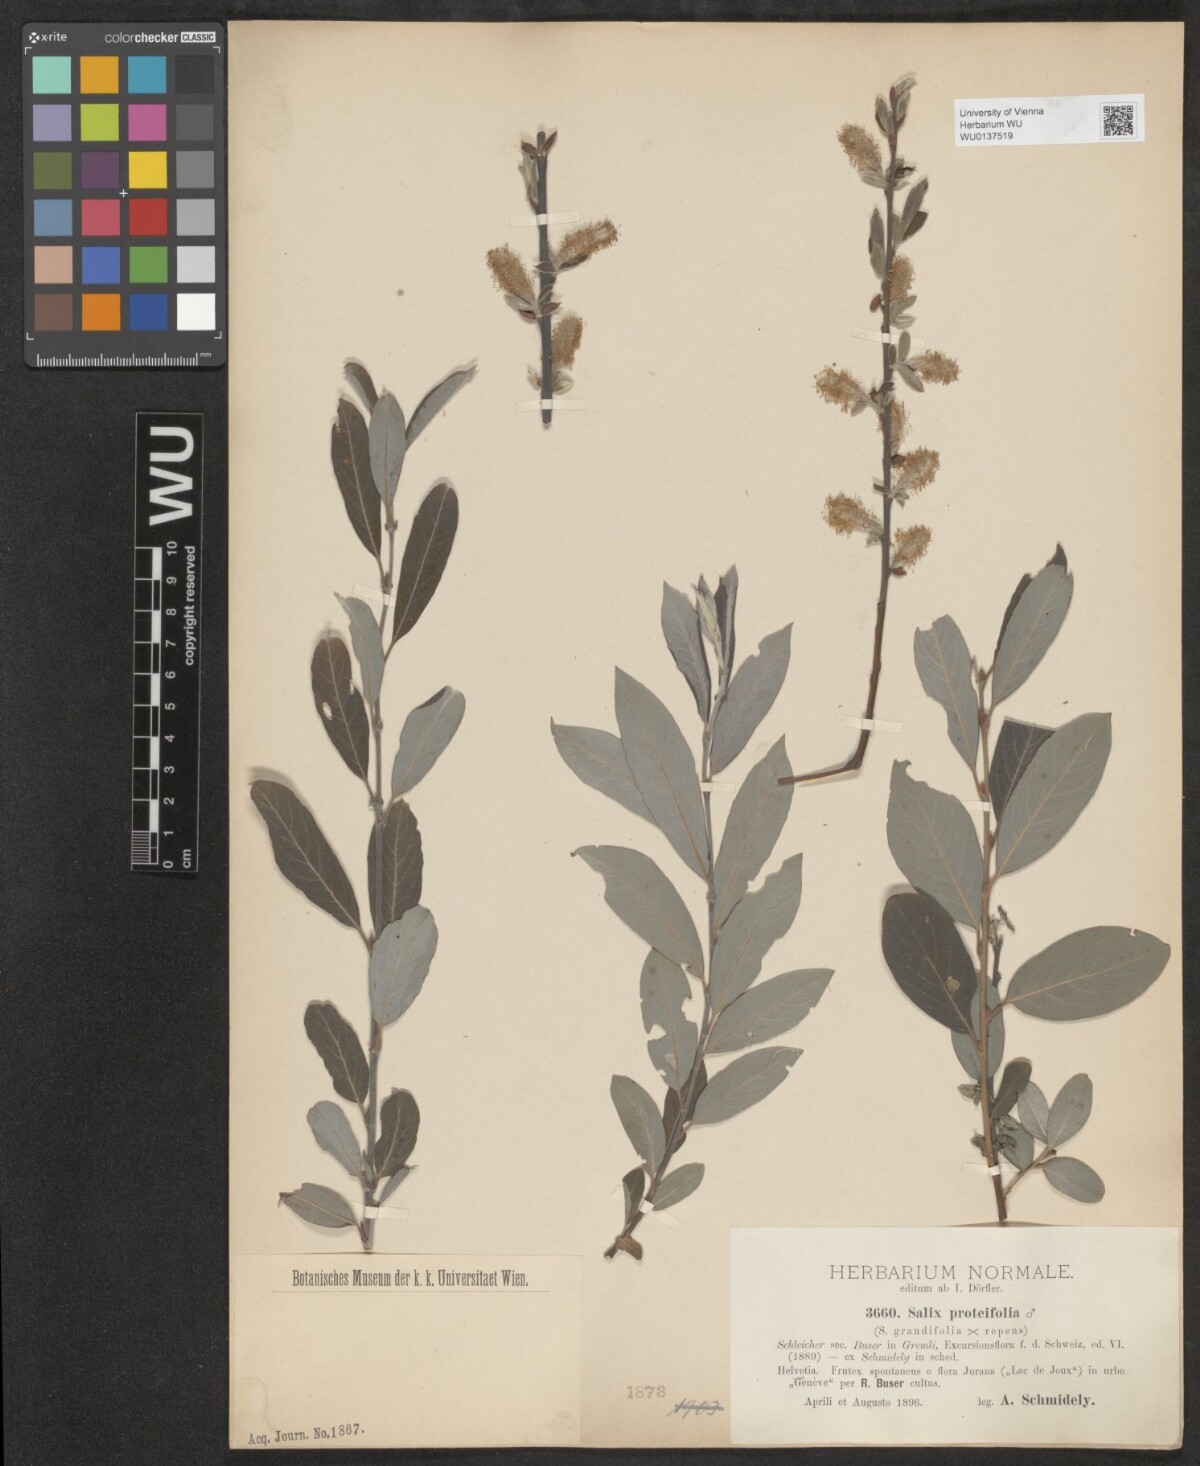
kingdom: Plantae
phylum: Tracheophyta
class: Magnoliopsida
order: Malpighiales
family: Salicaceae
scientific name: Salicaceae
